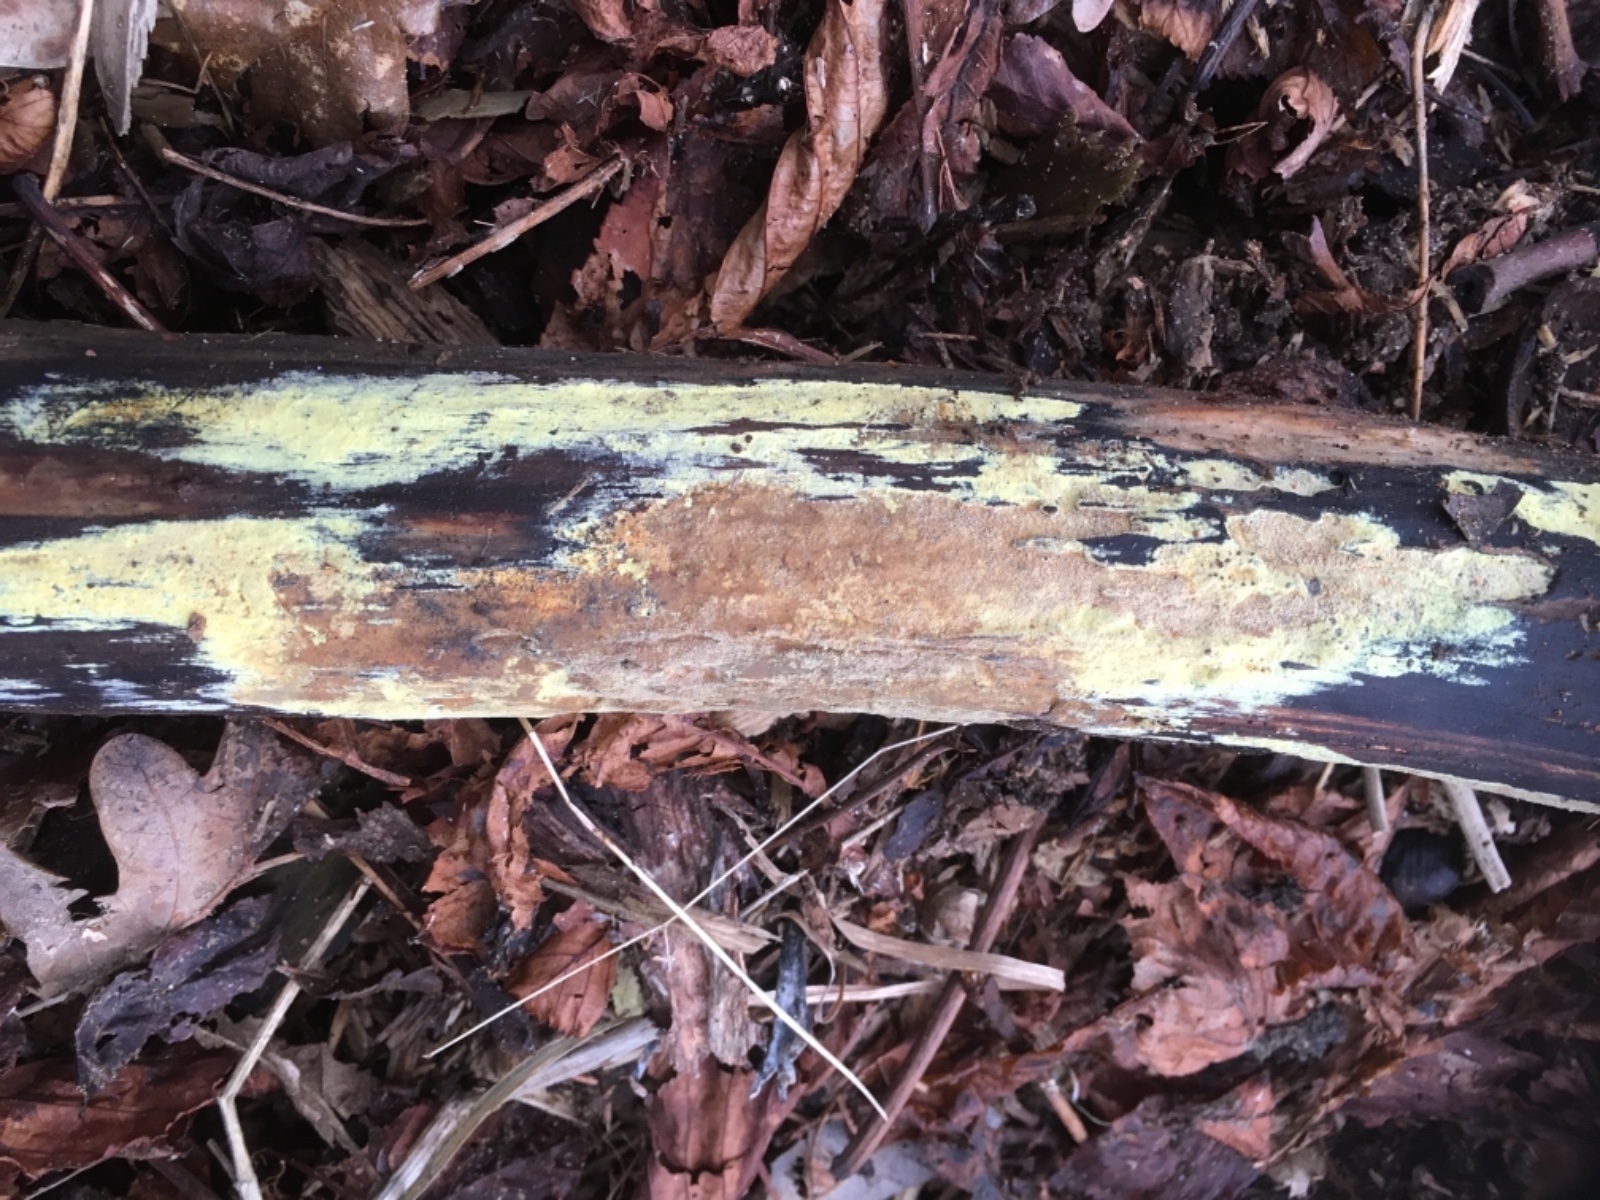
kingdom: Fungi
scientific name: Fungi
